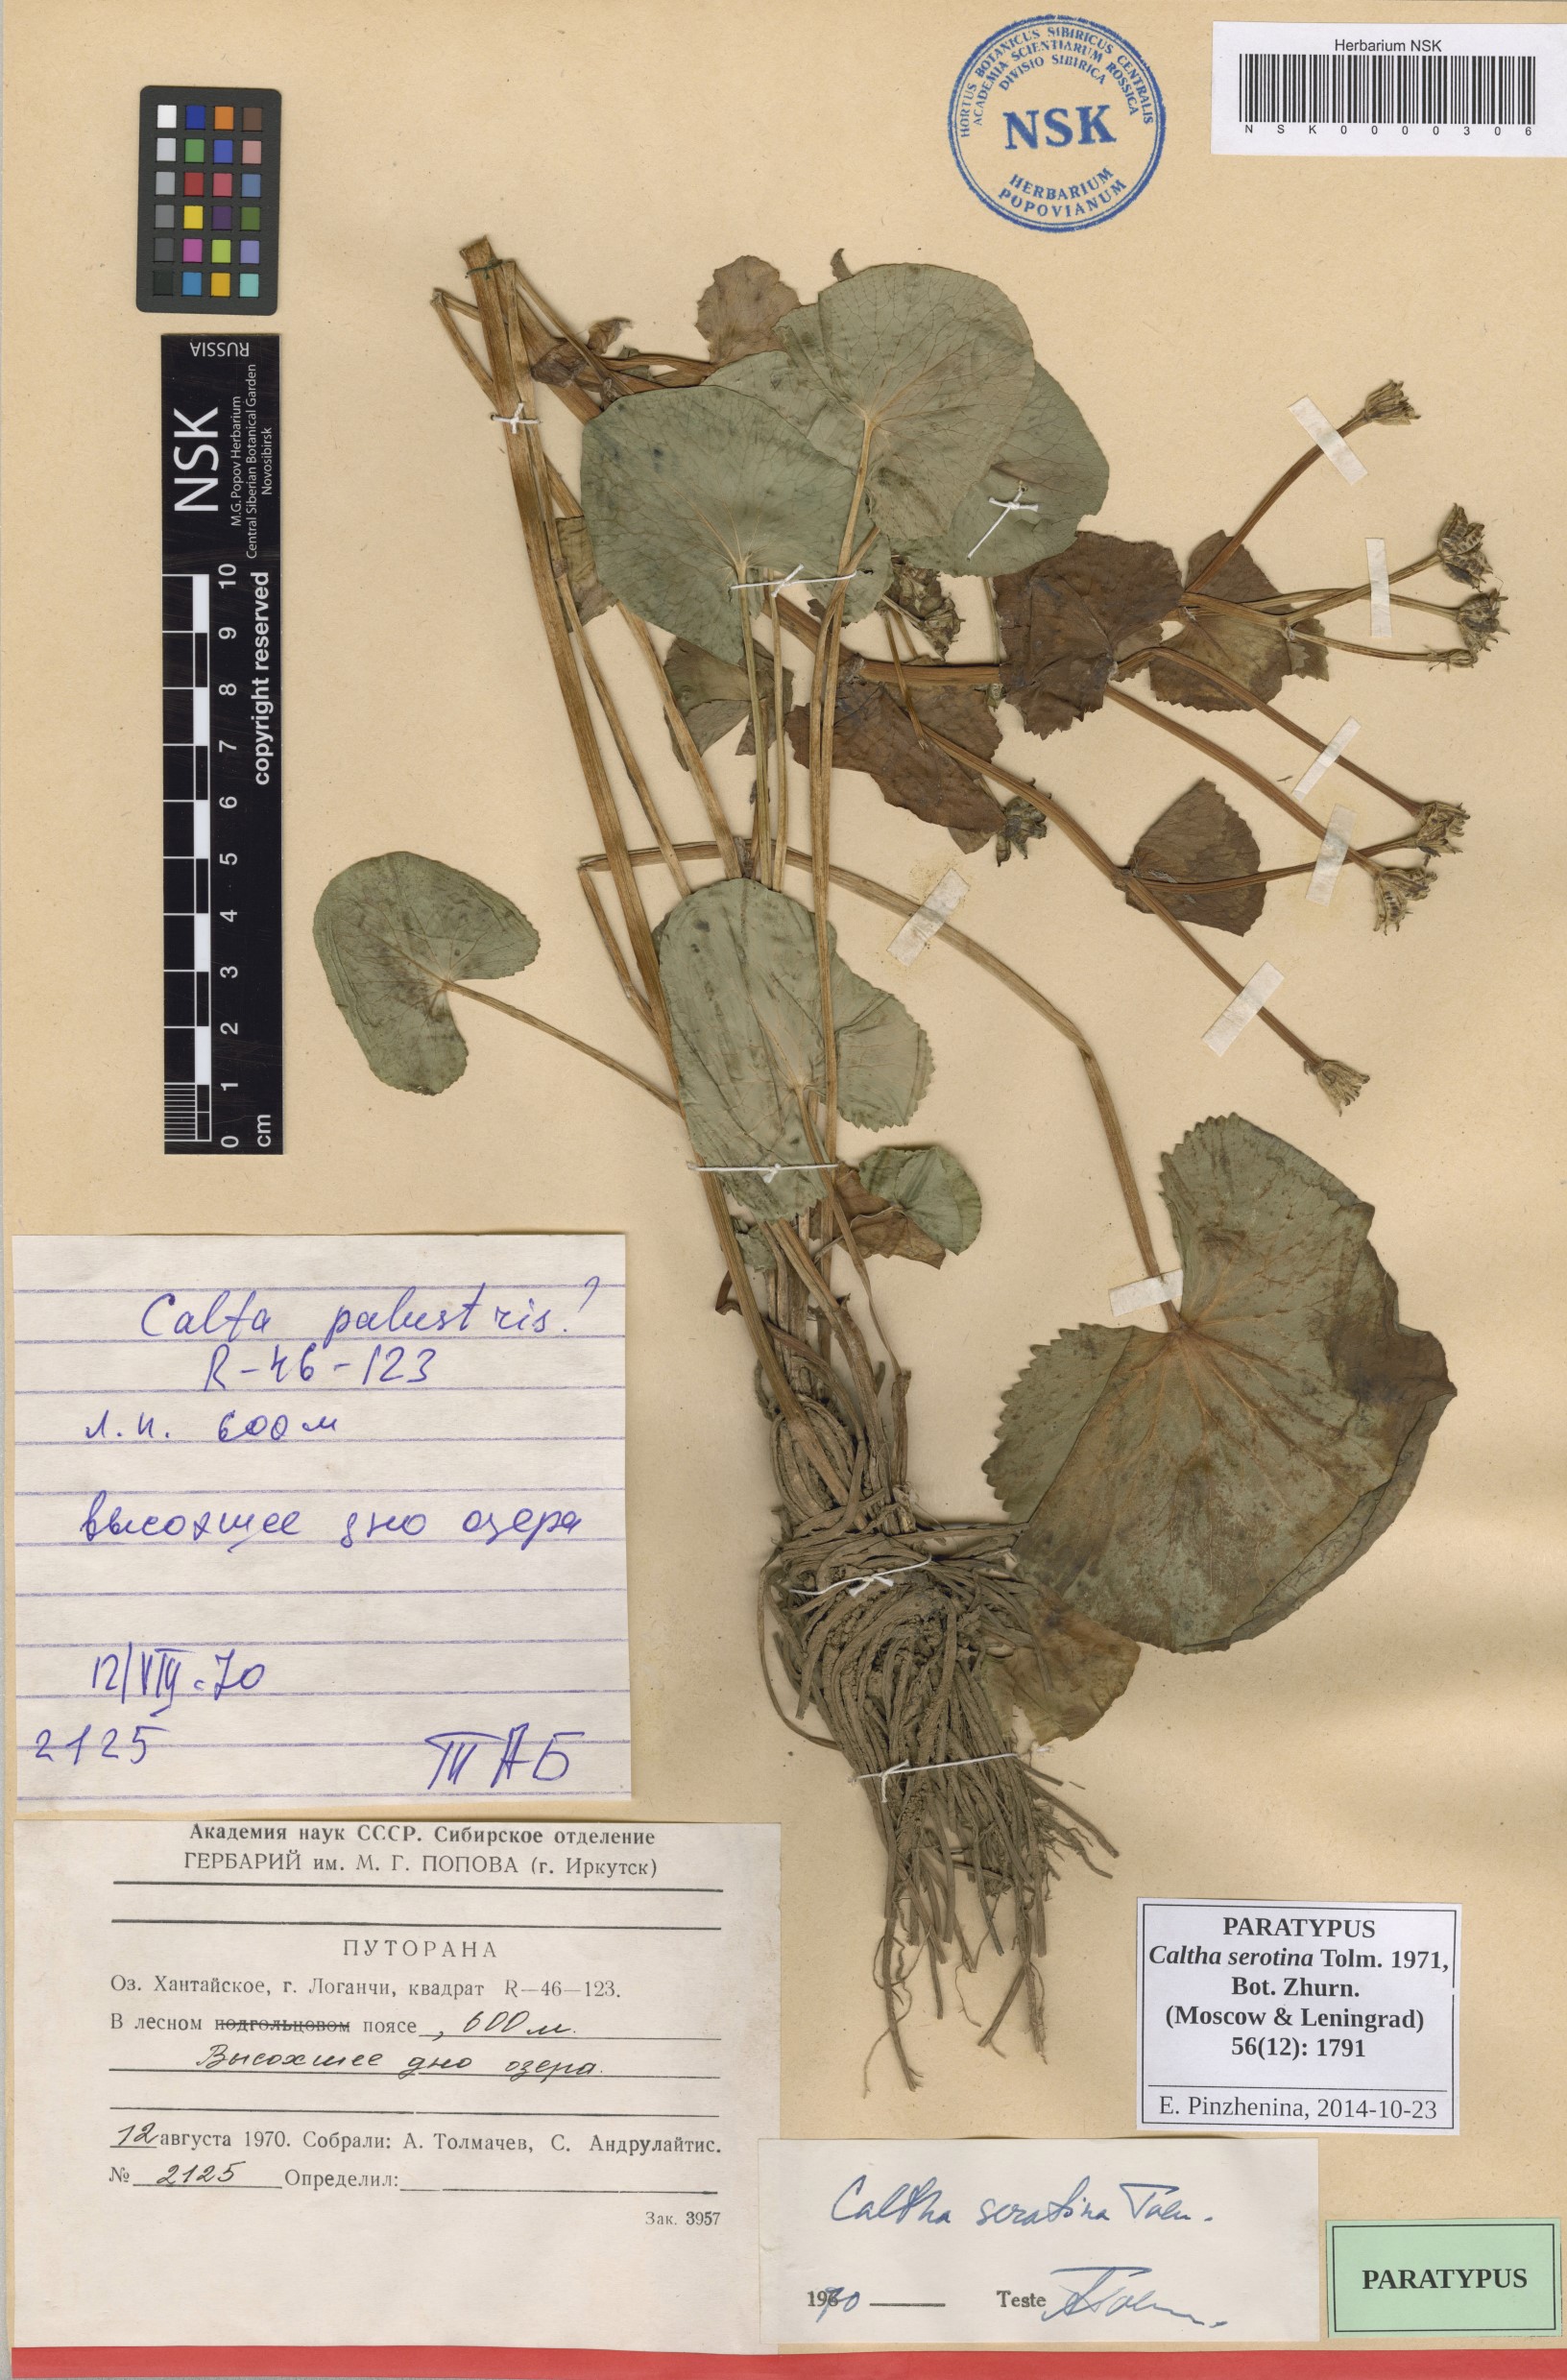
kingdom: Plantae
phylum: Tracheophyta
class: Magnoliopsida
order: Ranunculales
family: Ranunculaceae
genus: Caltha
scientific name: Caltha palustris
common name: Marsh marigold
